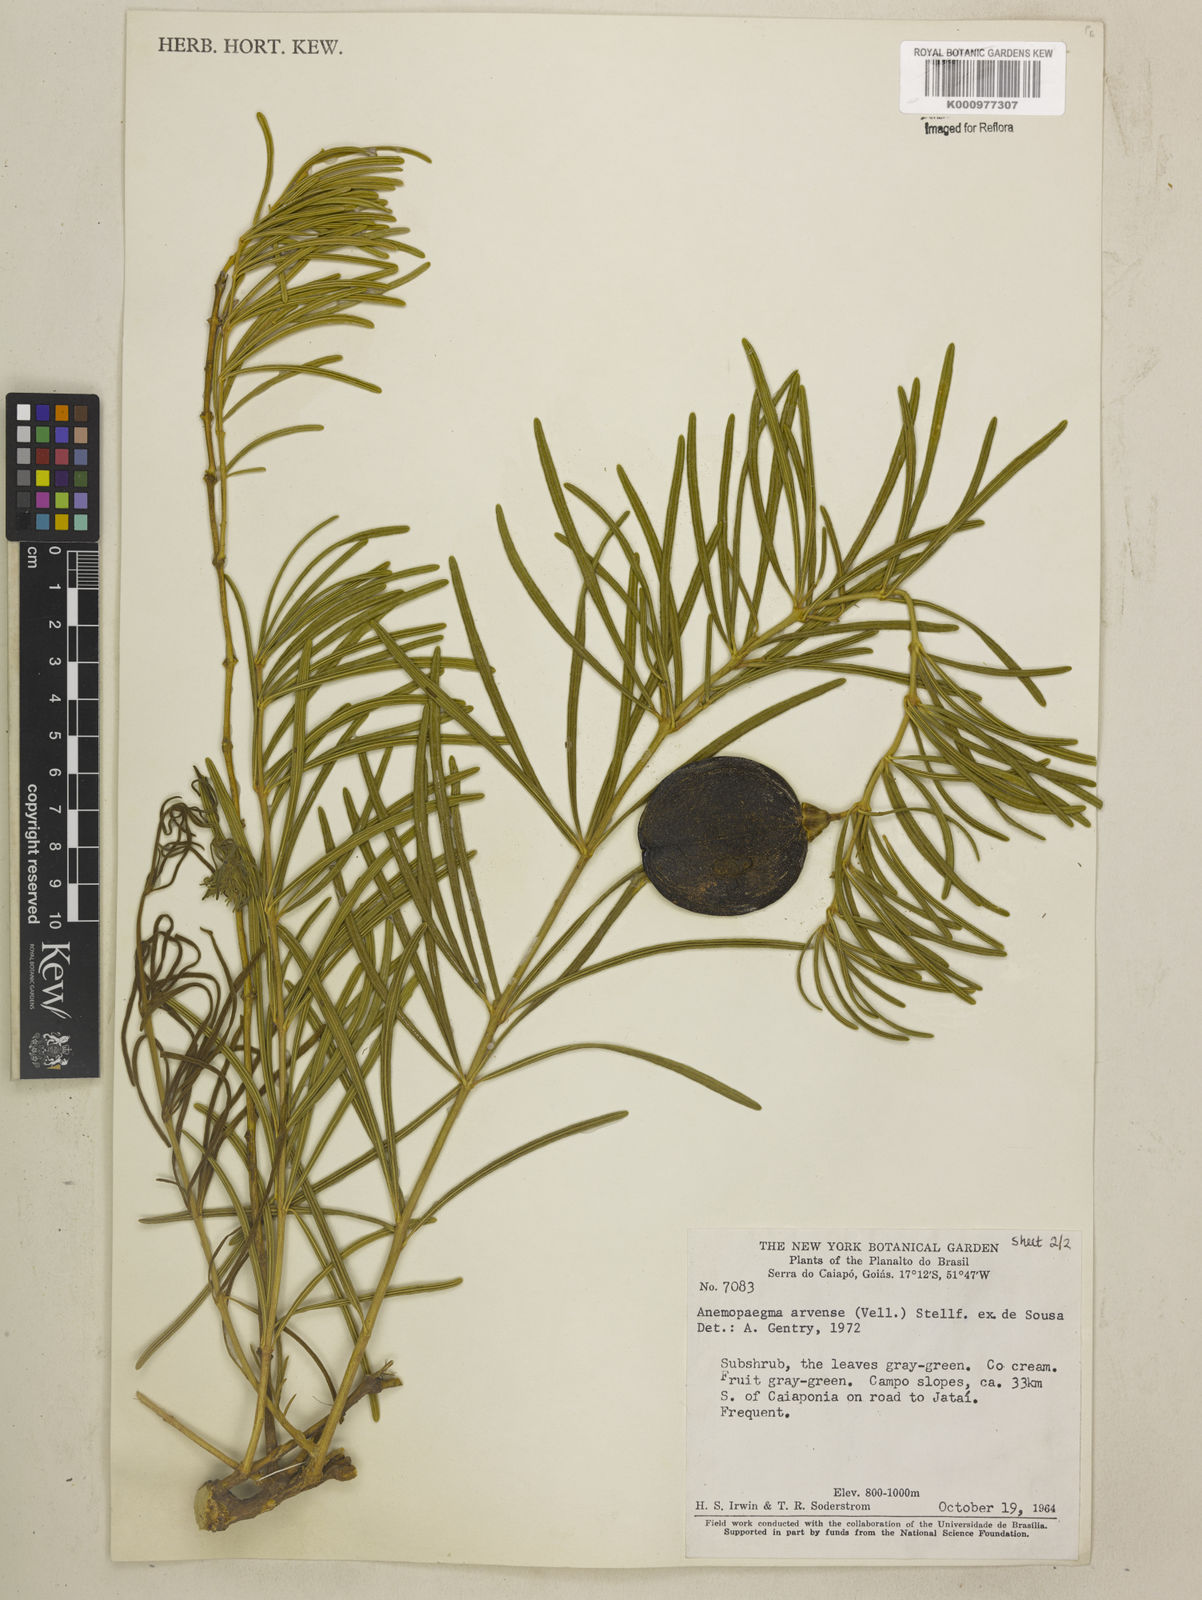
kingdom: Plantae
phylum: Tracheophyta
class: Magnoliopsida
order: Lamiales
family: Bignoniaceae
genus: Anemopaegma
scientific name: Anemopaegma arvense
